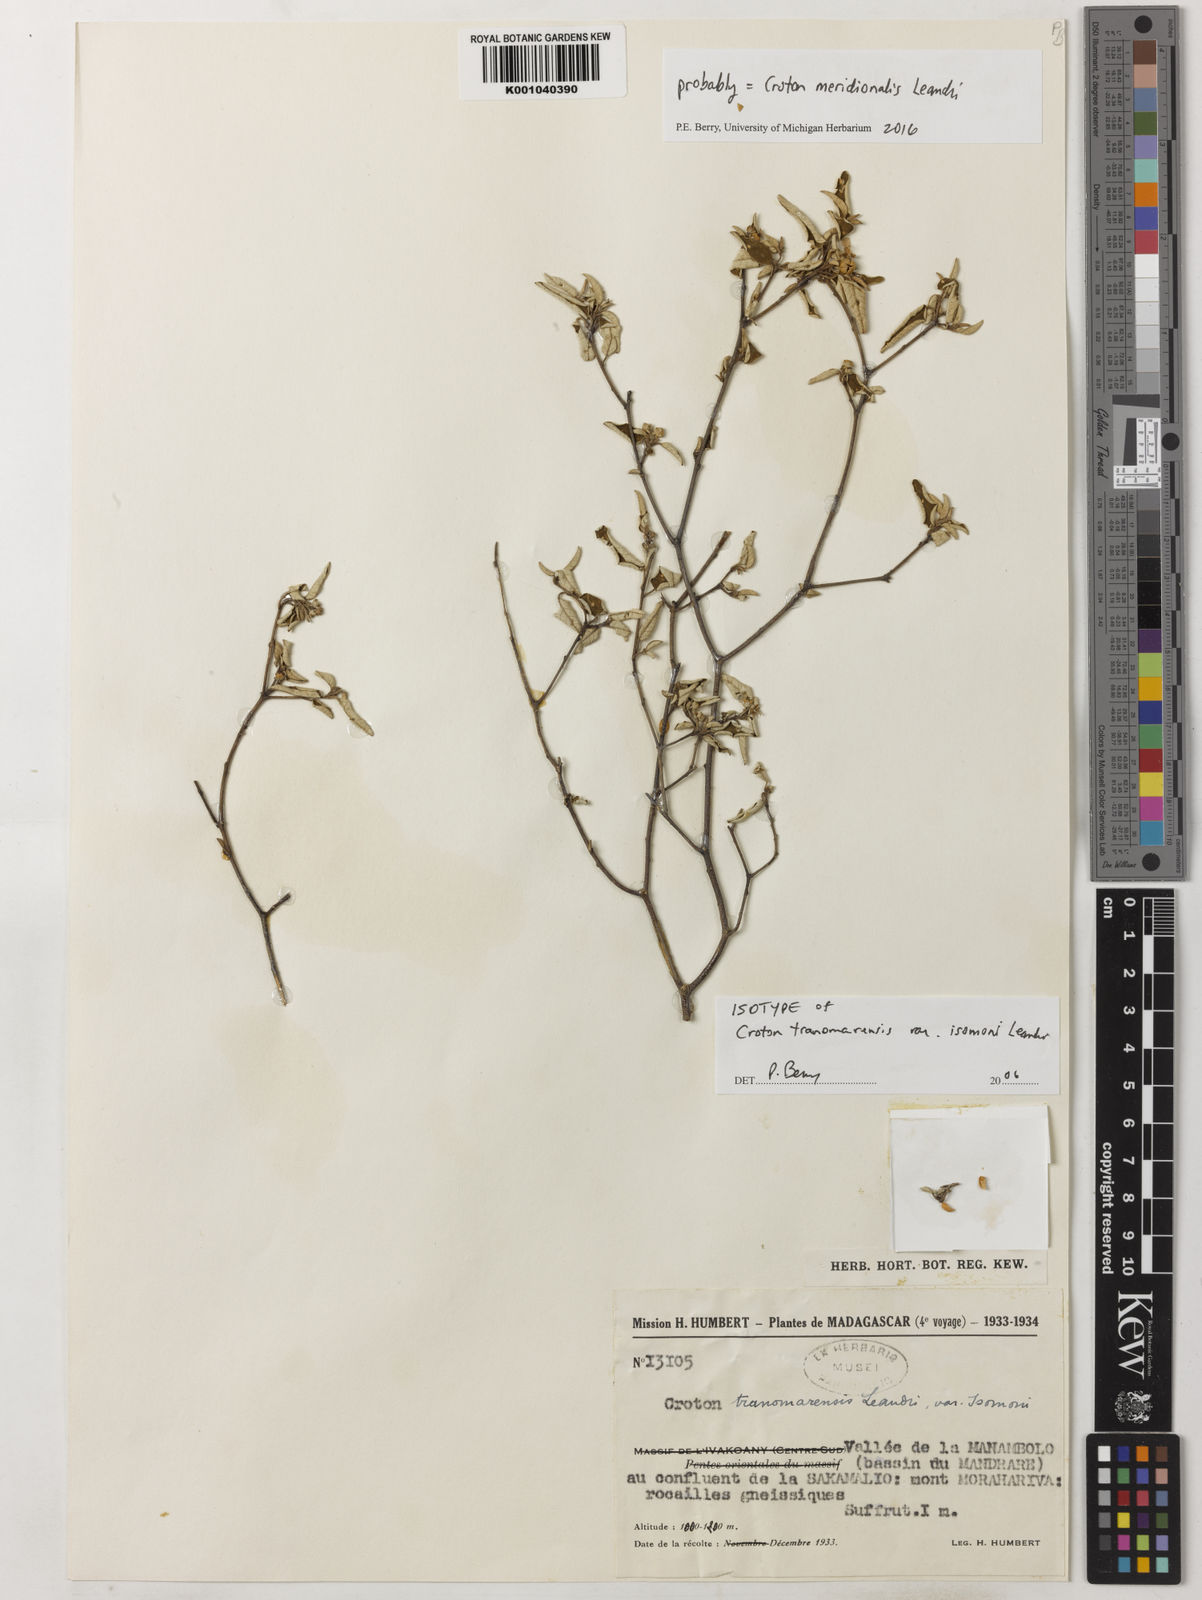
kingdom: Plantae
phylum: Tracheophyta
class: Magnoliopsida
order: Malpighiales
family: Euphorbiaceae
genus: Croton
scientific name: Croton meridionalis
